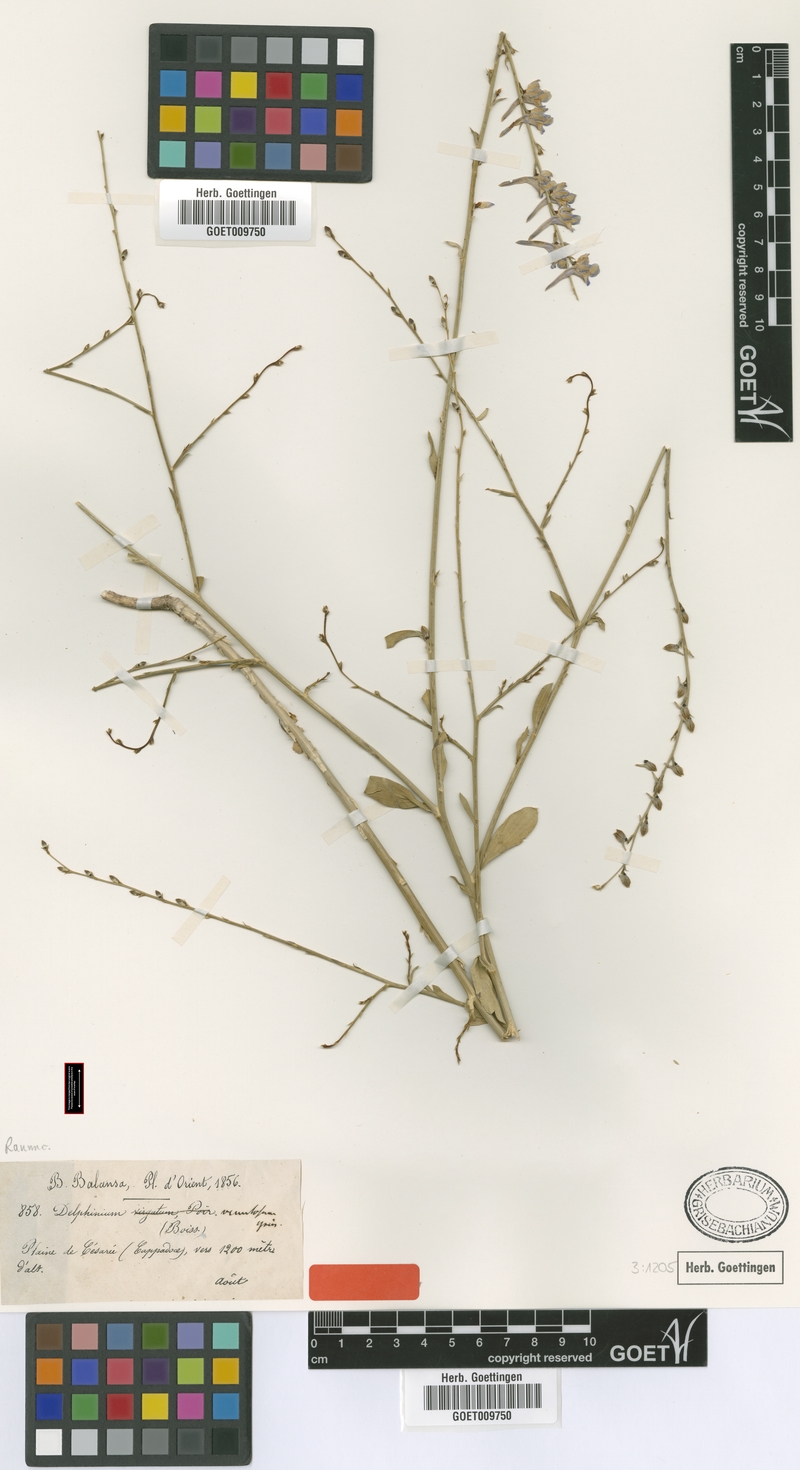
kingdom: Plantae
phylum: Tracheophyta
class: Magnoliopsida
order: Ranunculales
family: Ranunculaceae
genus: Delphinium
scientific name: Delphinium venulosum
